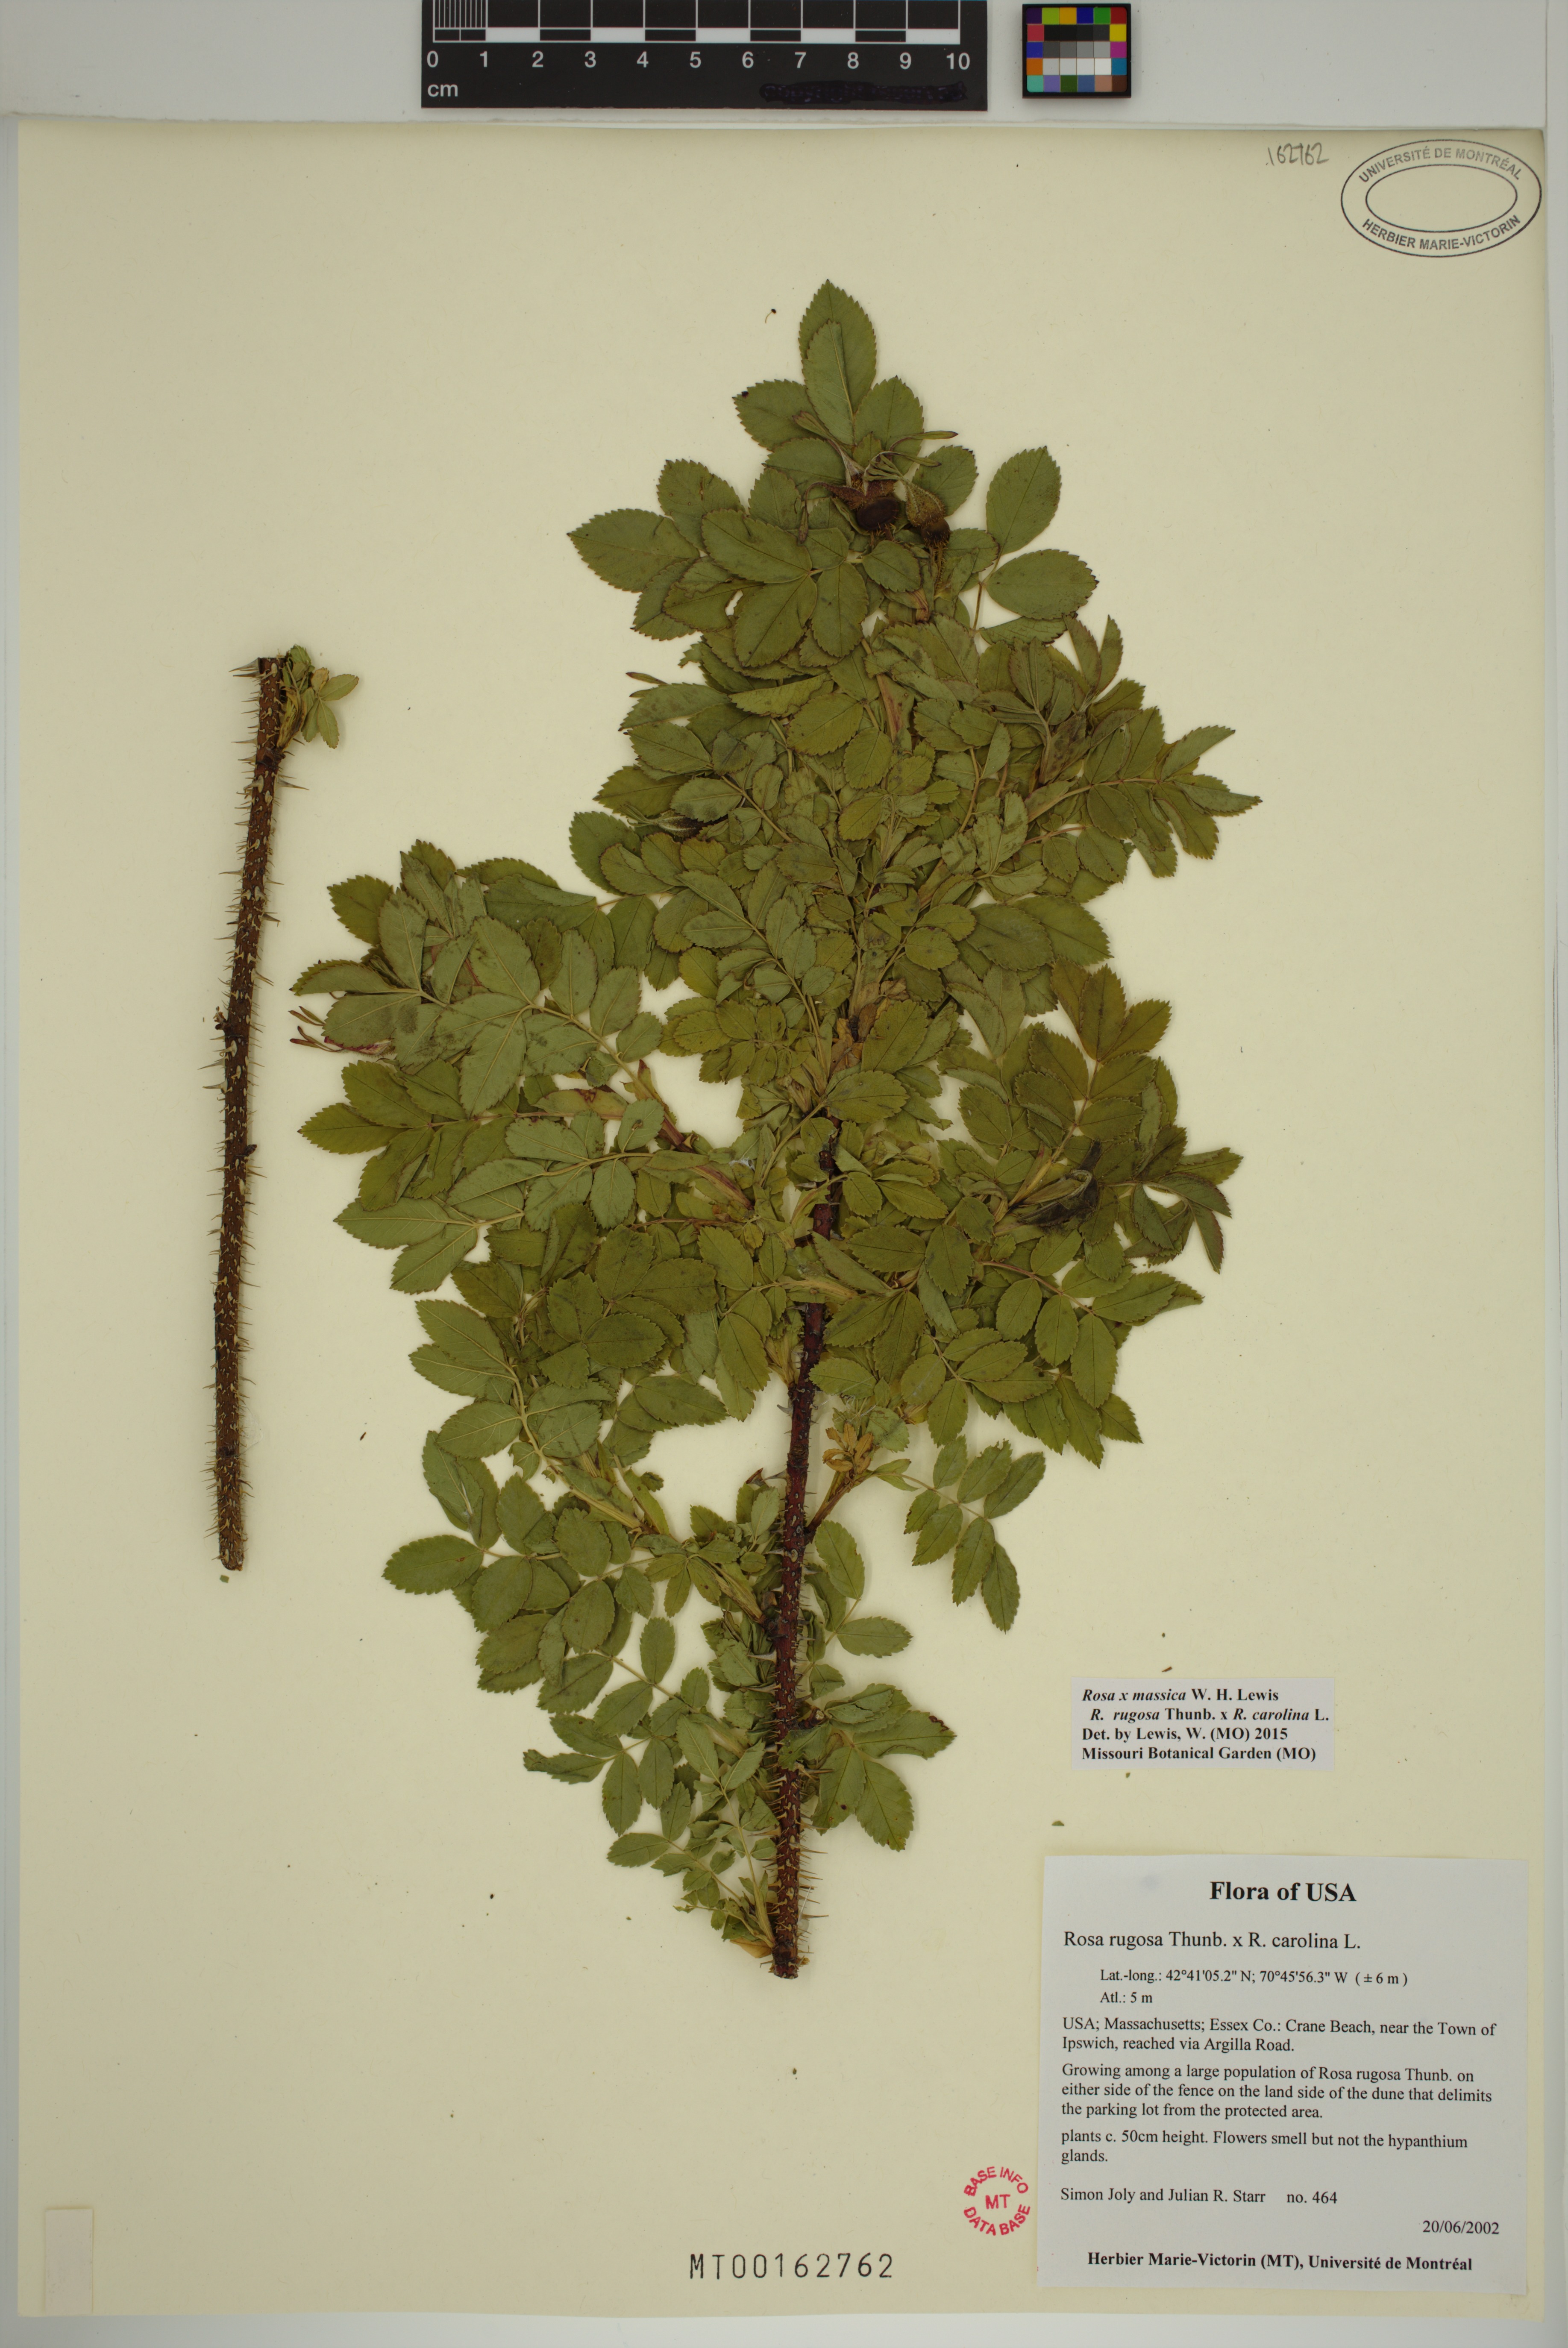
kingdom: Plantae
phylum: Tracheophyta
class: Magnoliopsida
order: Rosales
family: Rosaceae
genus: Rosa
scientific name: Rosa spaethiana
